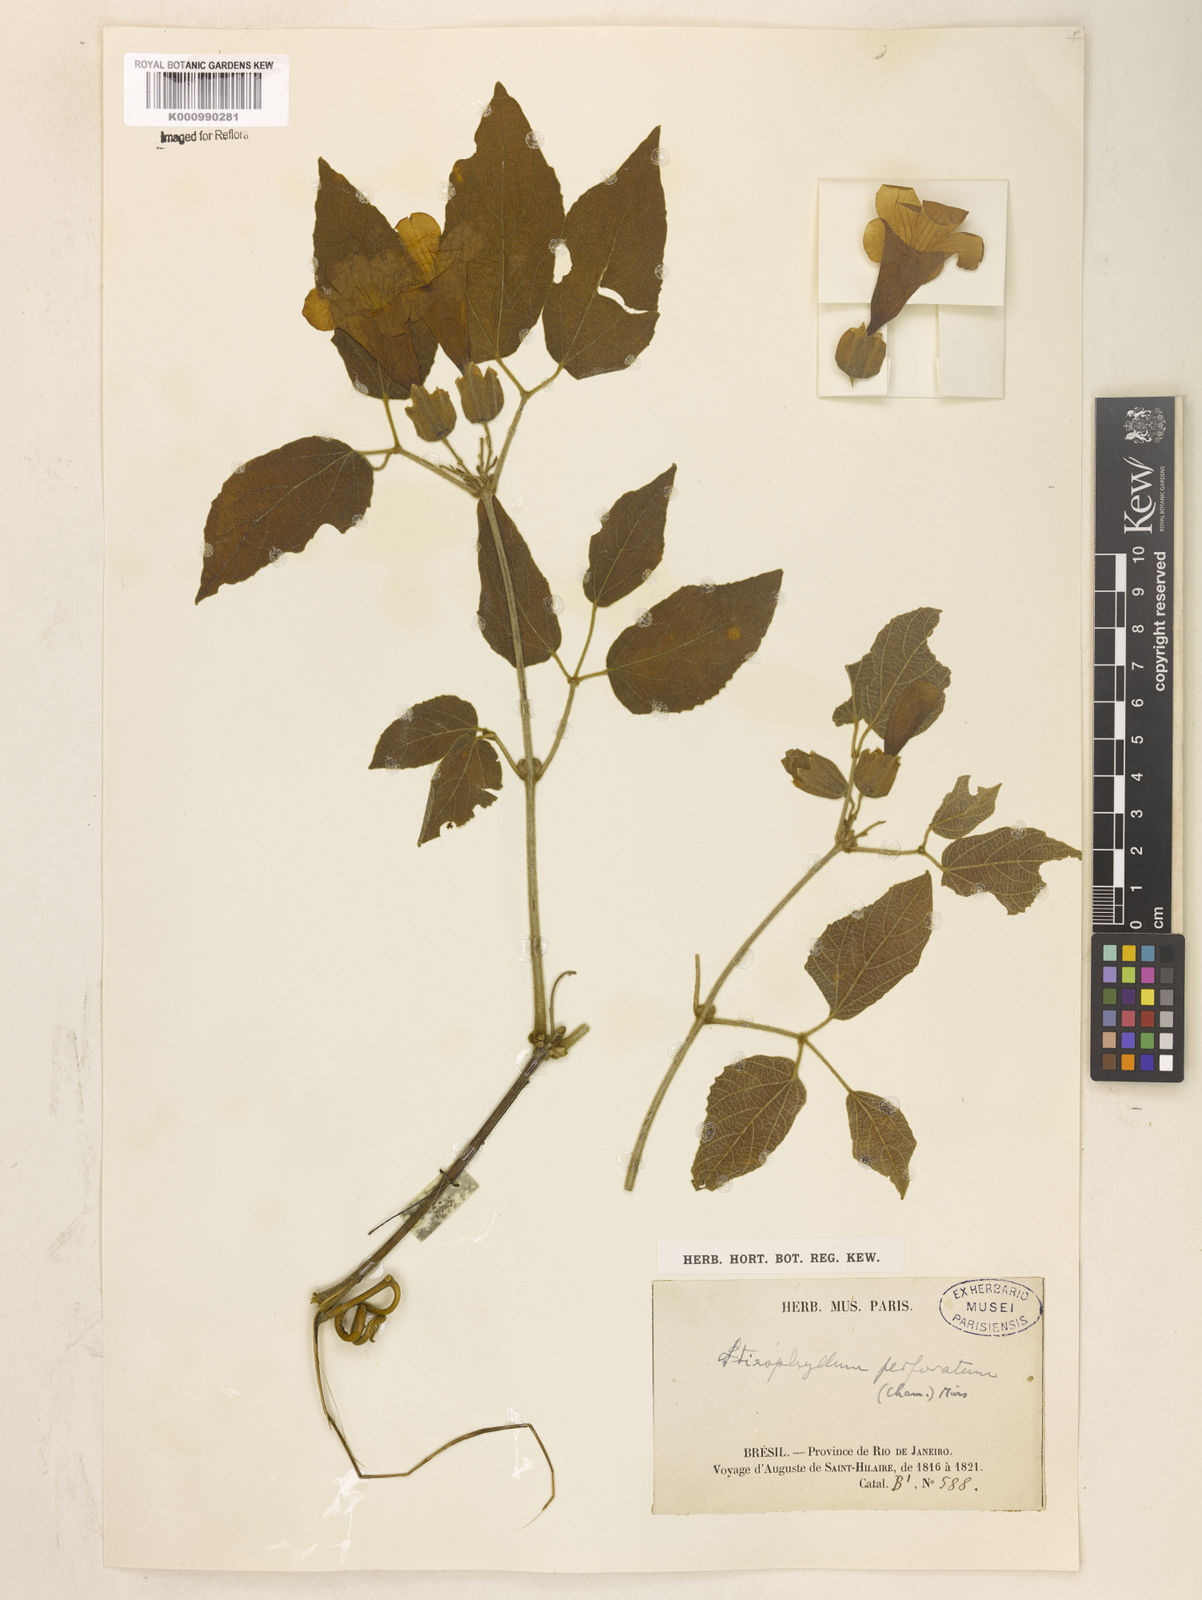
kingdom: Plantae
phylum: Tracheophyta
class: Magnoliopsida
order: Lamiales
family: Bignoniaceae
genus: Stizophyllum
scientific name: Stizophyllum perforatum
